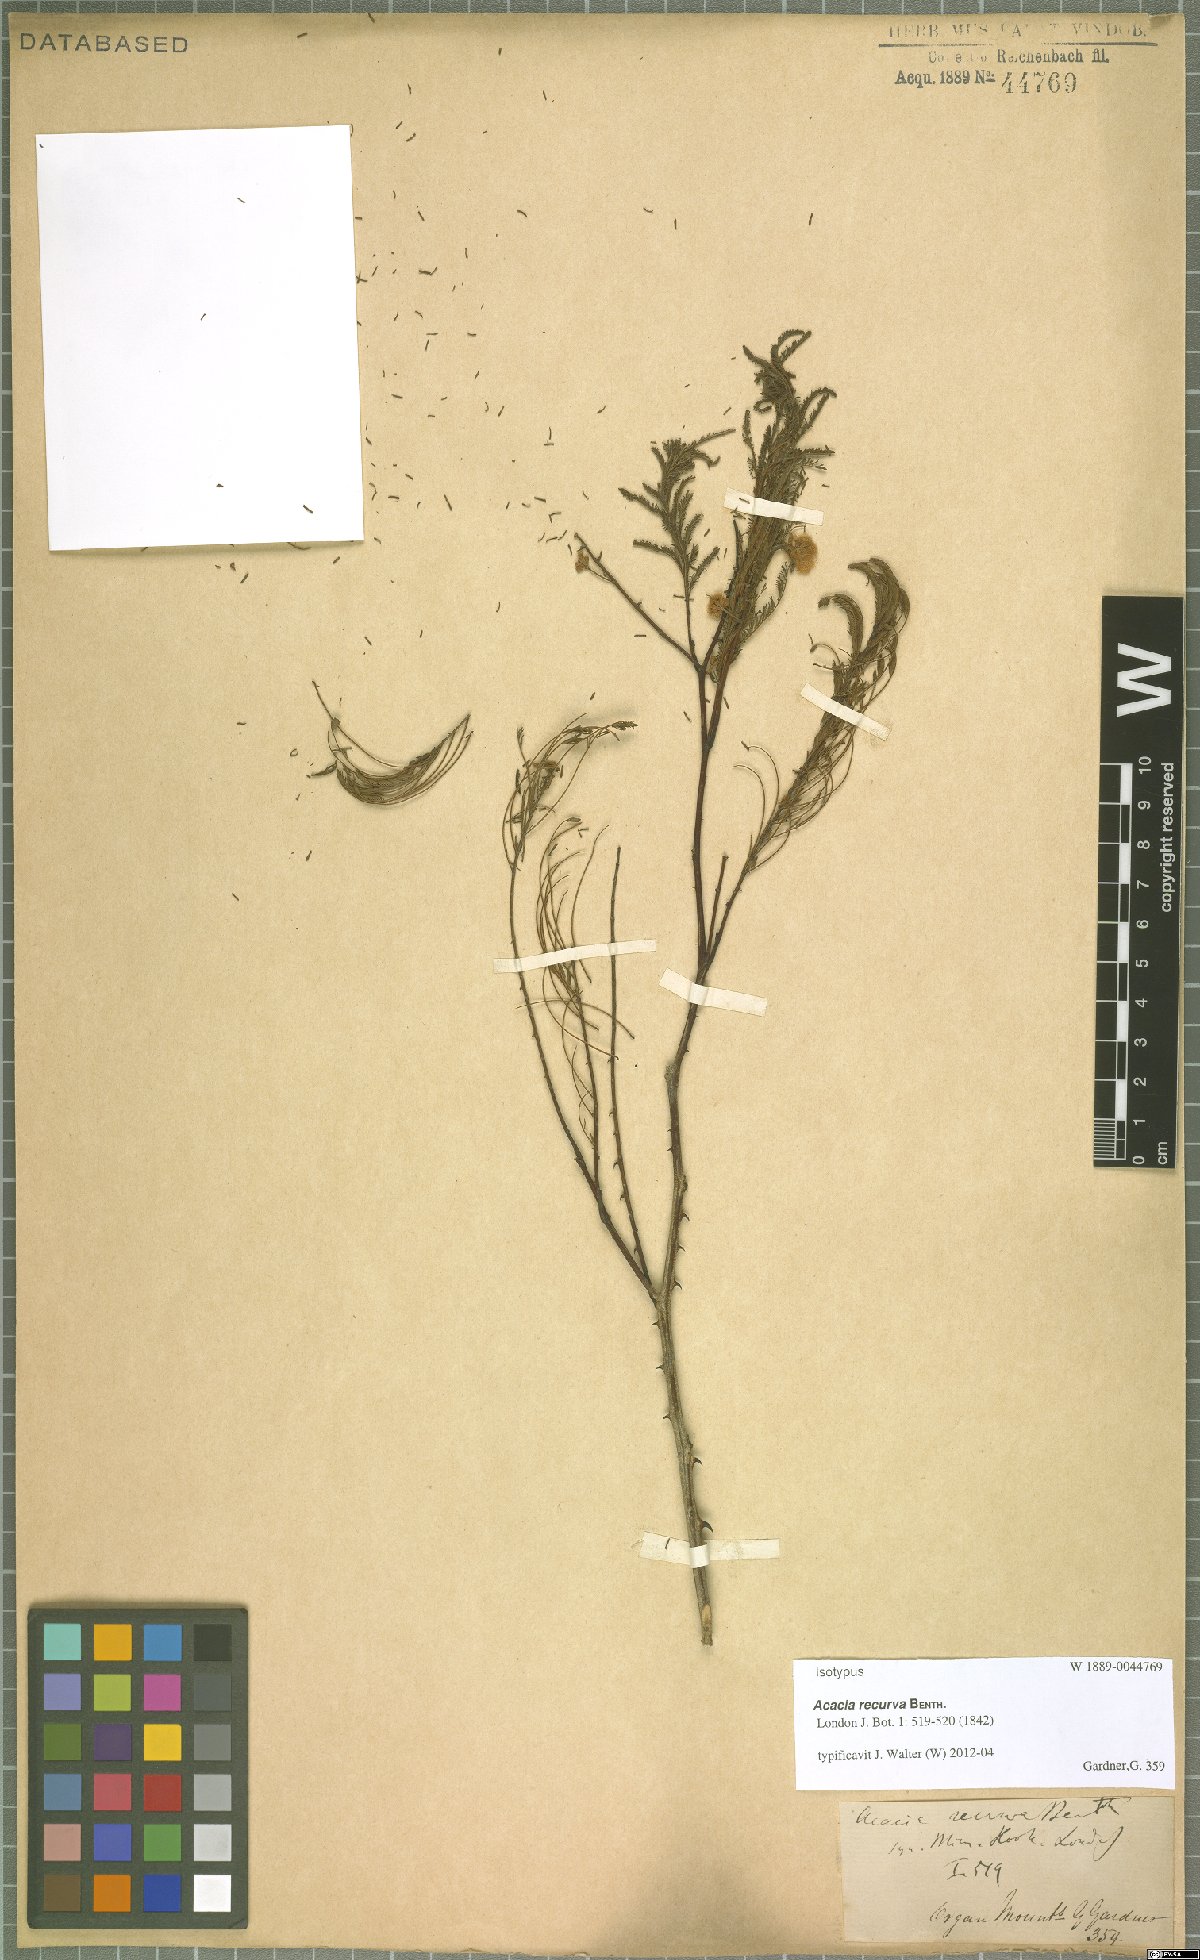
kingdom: Plantae
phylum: Tracheophyta
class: Magnoliopsida
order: Fabales
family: Fabaceae
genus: Senegalia
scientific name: Senegalia recurva
